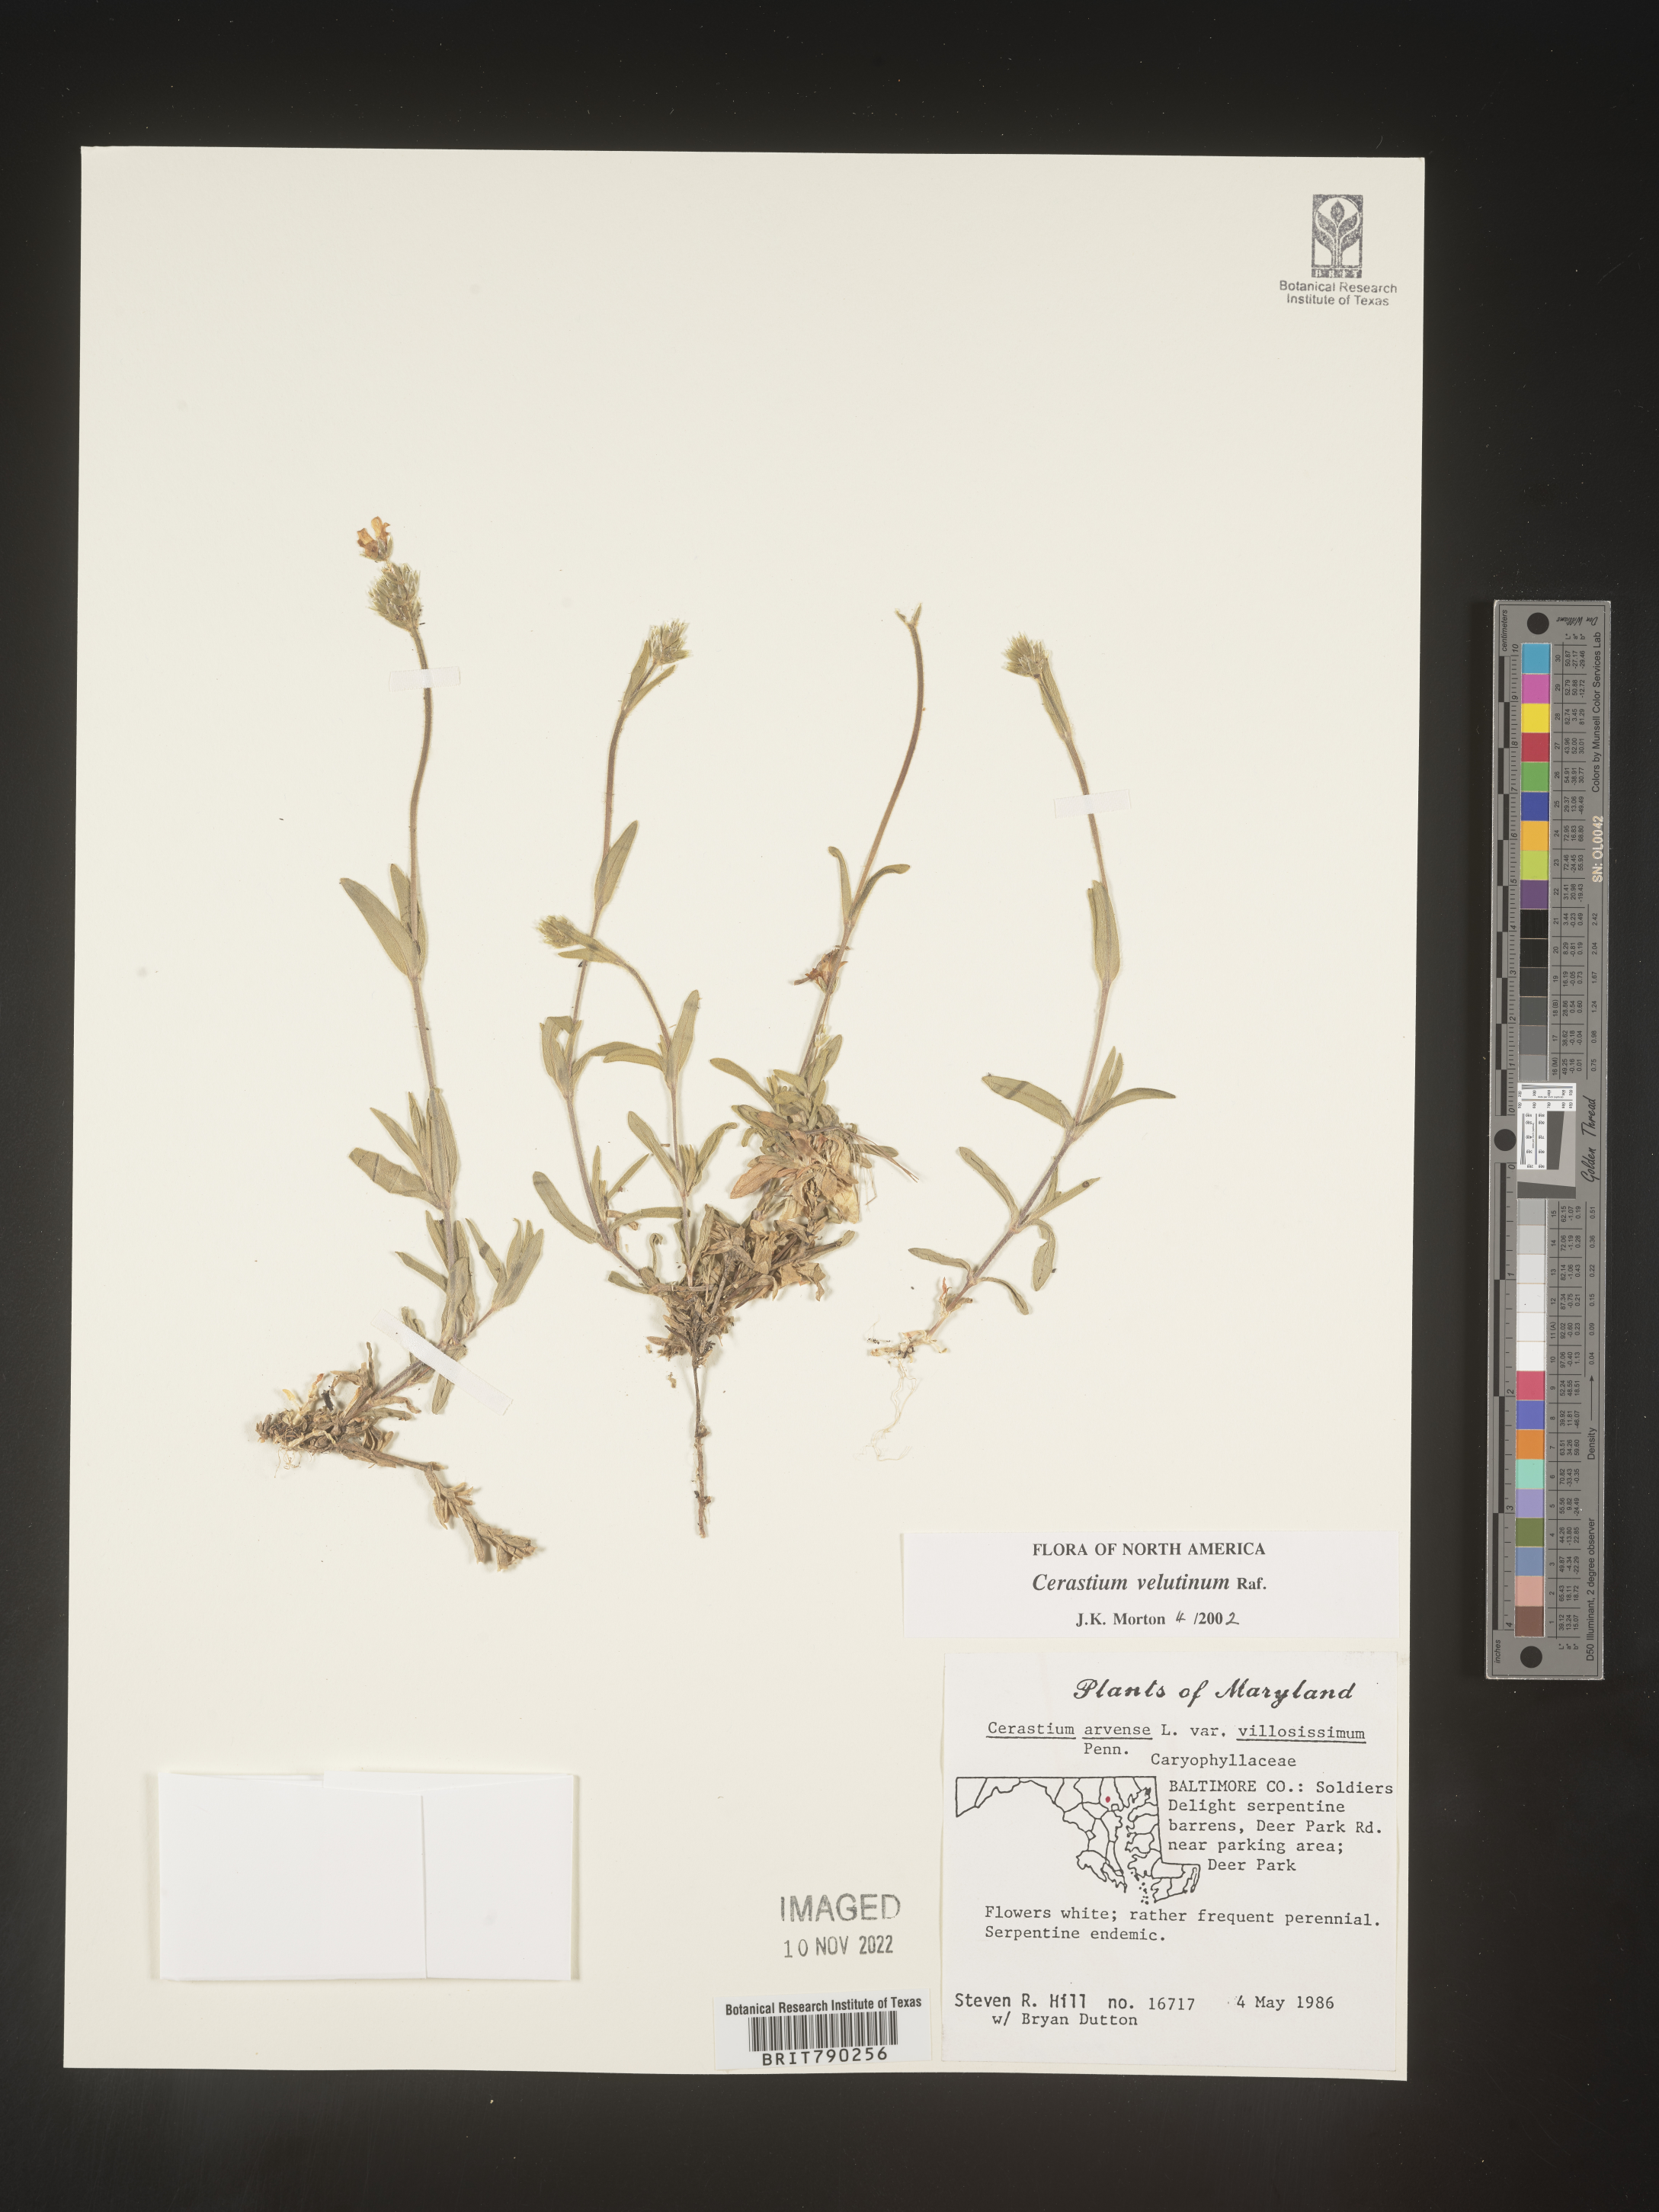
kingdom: Plantae
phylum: Tracheophyta
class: Magnoliopsida
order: Caryophyllales
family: Caryophyllaceae
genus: Cerastium
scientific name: Cerastium velutinum
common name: Barren chickweed
